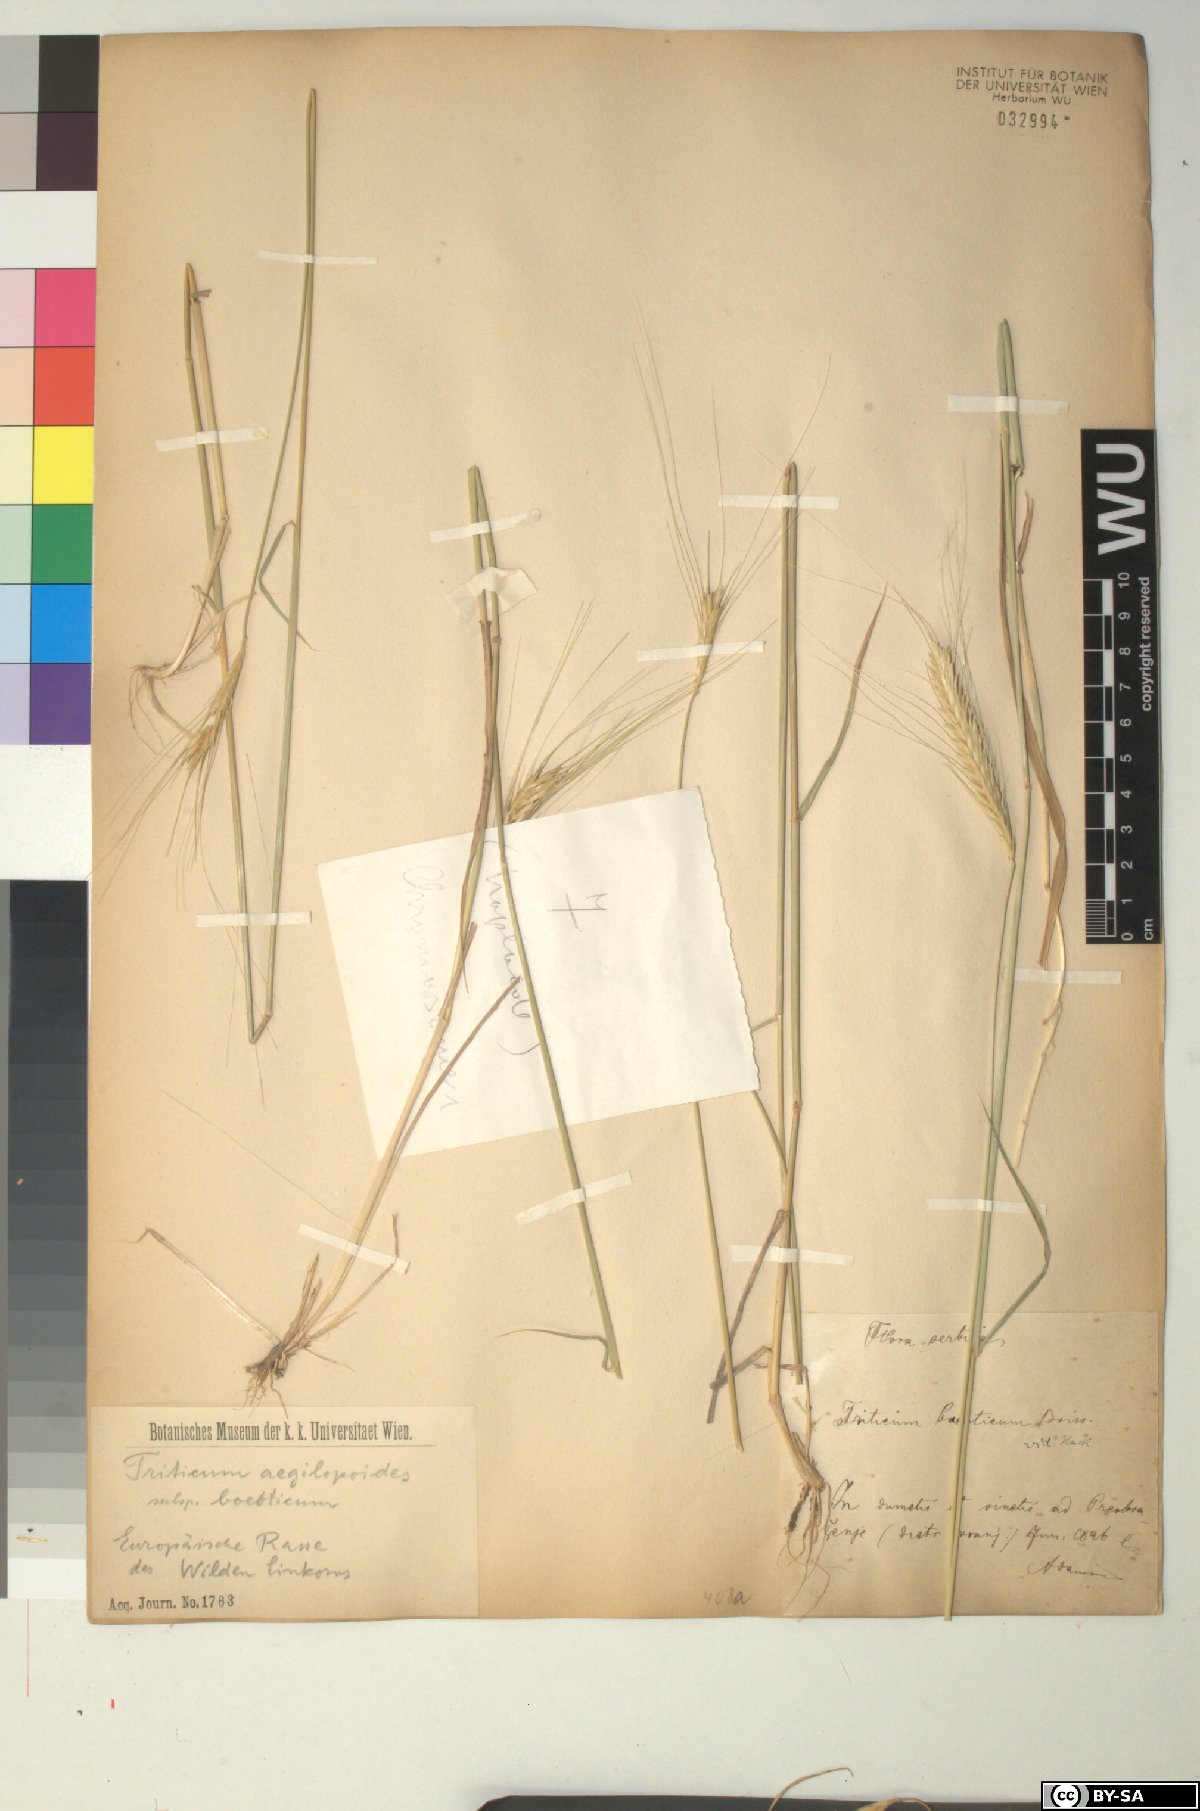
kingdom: Plantae
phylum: Tracheophyta
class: Liliopsida
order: Poales
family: Poaceae
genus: Triticum
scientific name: Triticum monococcum
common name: Einkorn
